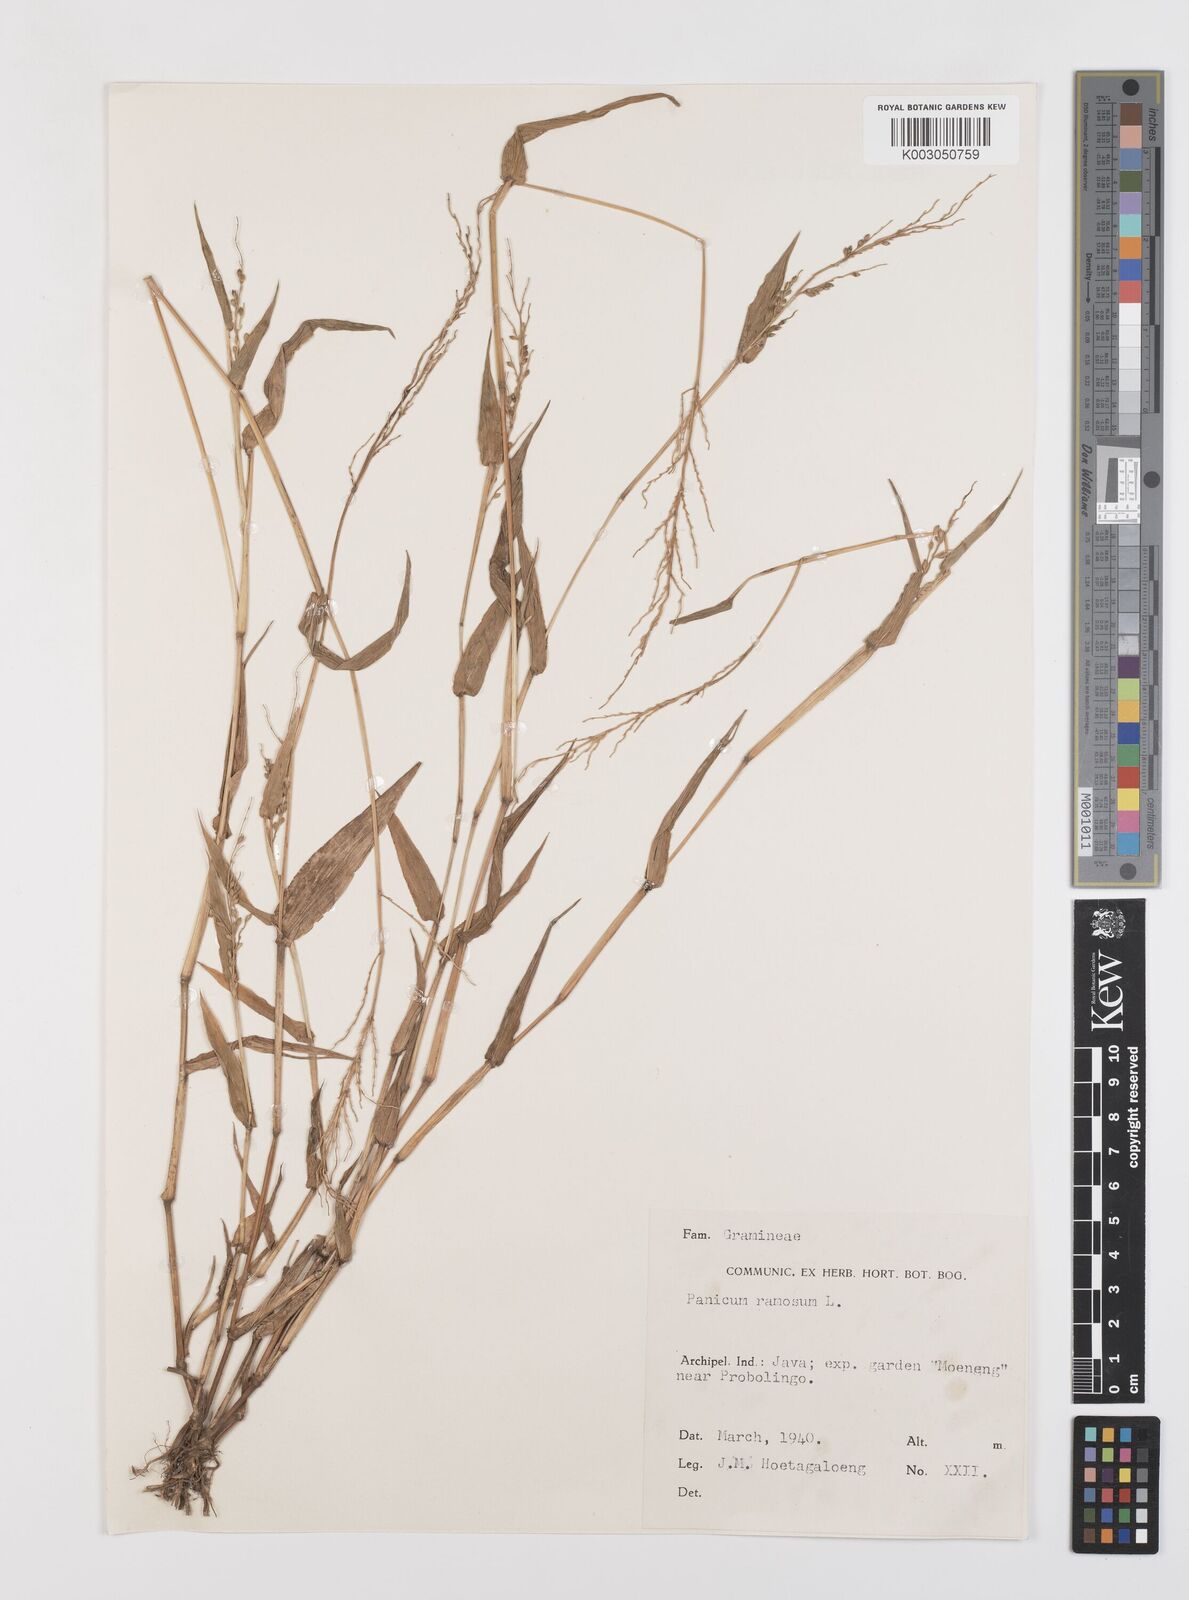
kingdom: Plantae
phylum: Tracheophyta
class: Liliopsida
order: Poales
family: Poaceae
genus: Urochloa
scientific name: Urochloa ramosa
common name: Browntop millet
